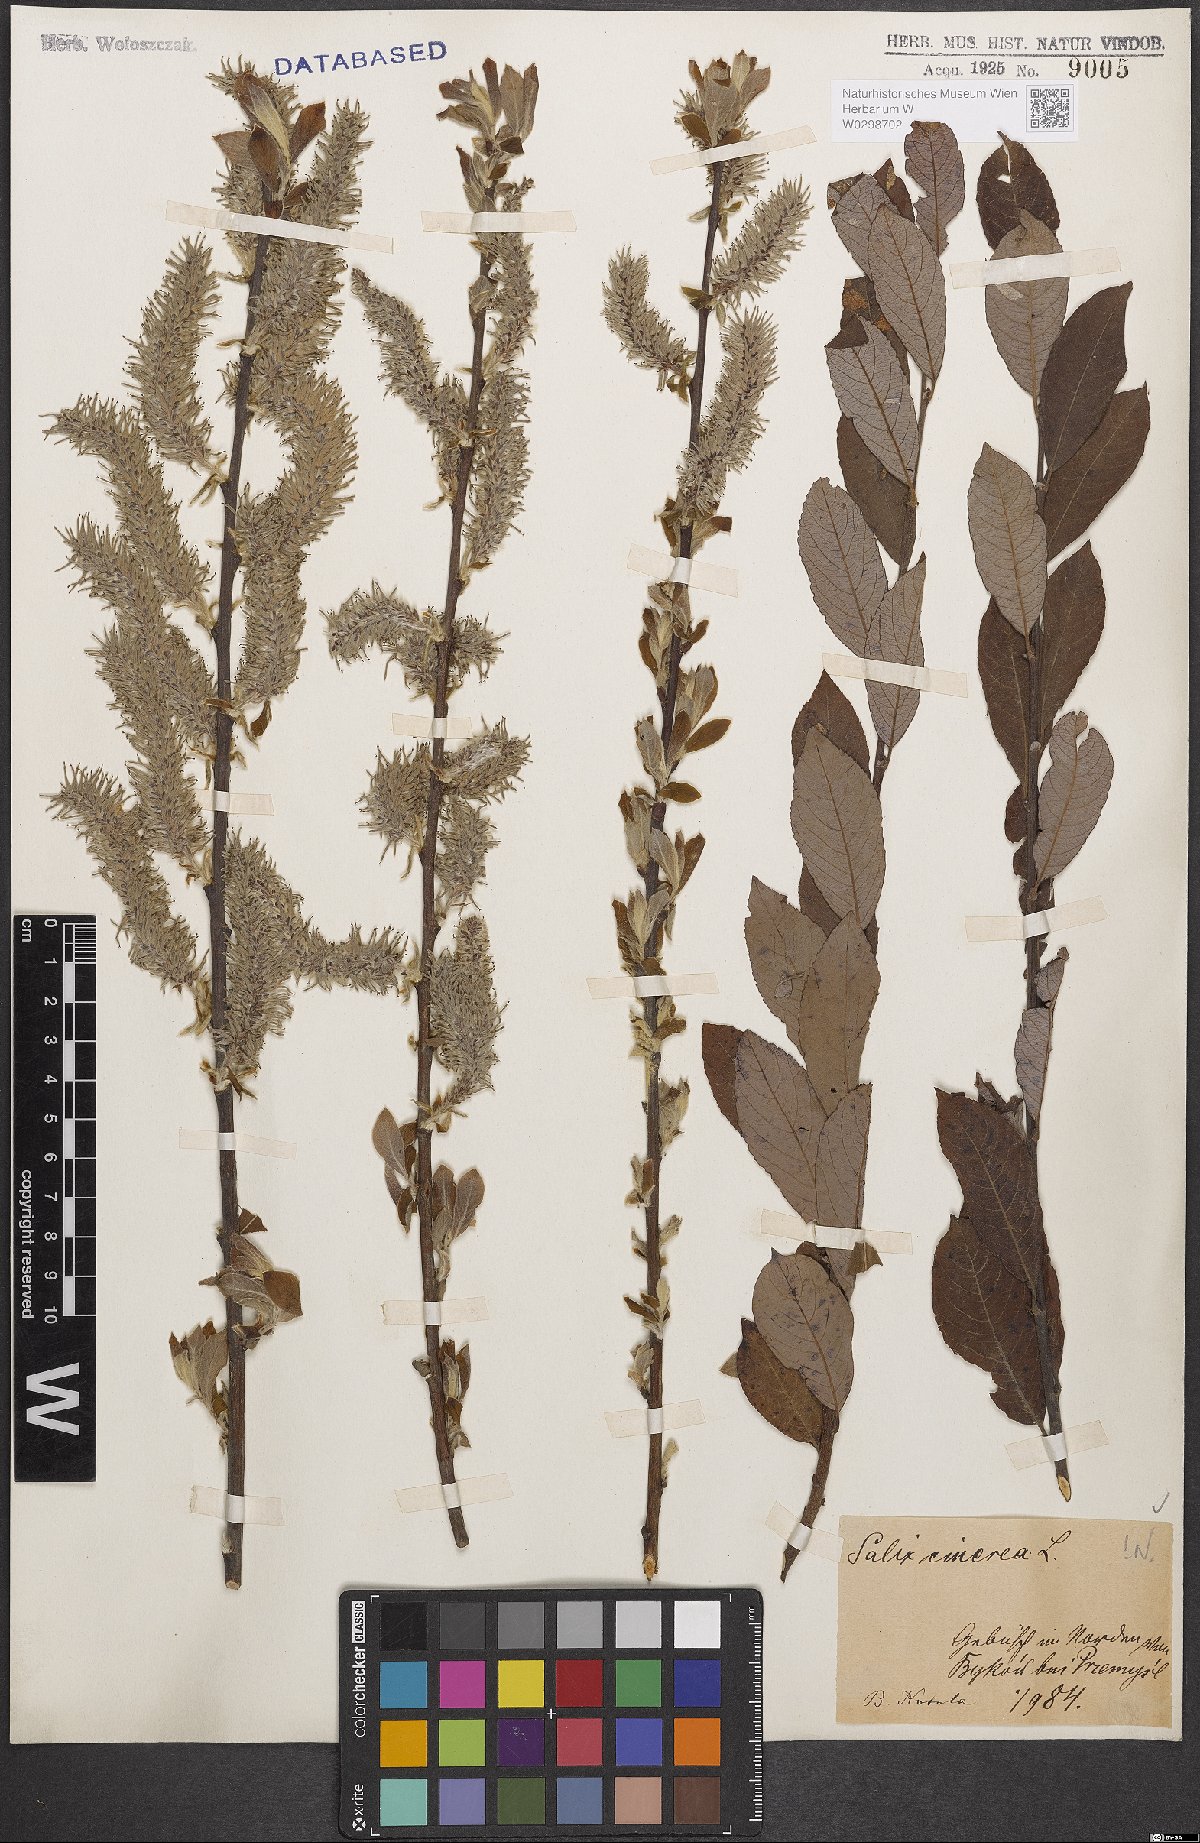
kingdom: Plantae
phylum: Tracheophyta
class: Magnoliopsida
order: Malpighiales
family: Salicaceae
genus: Salix
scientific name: Salix cinerea
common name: Common sallow
